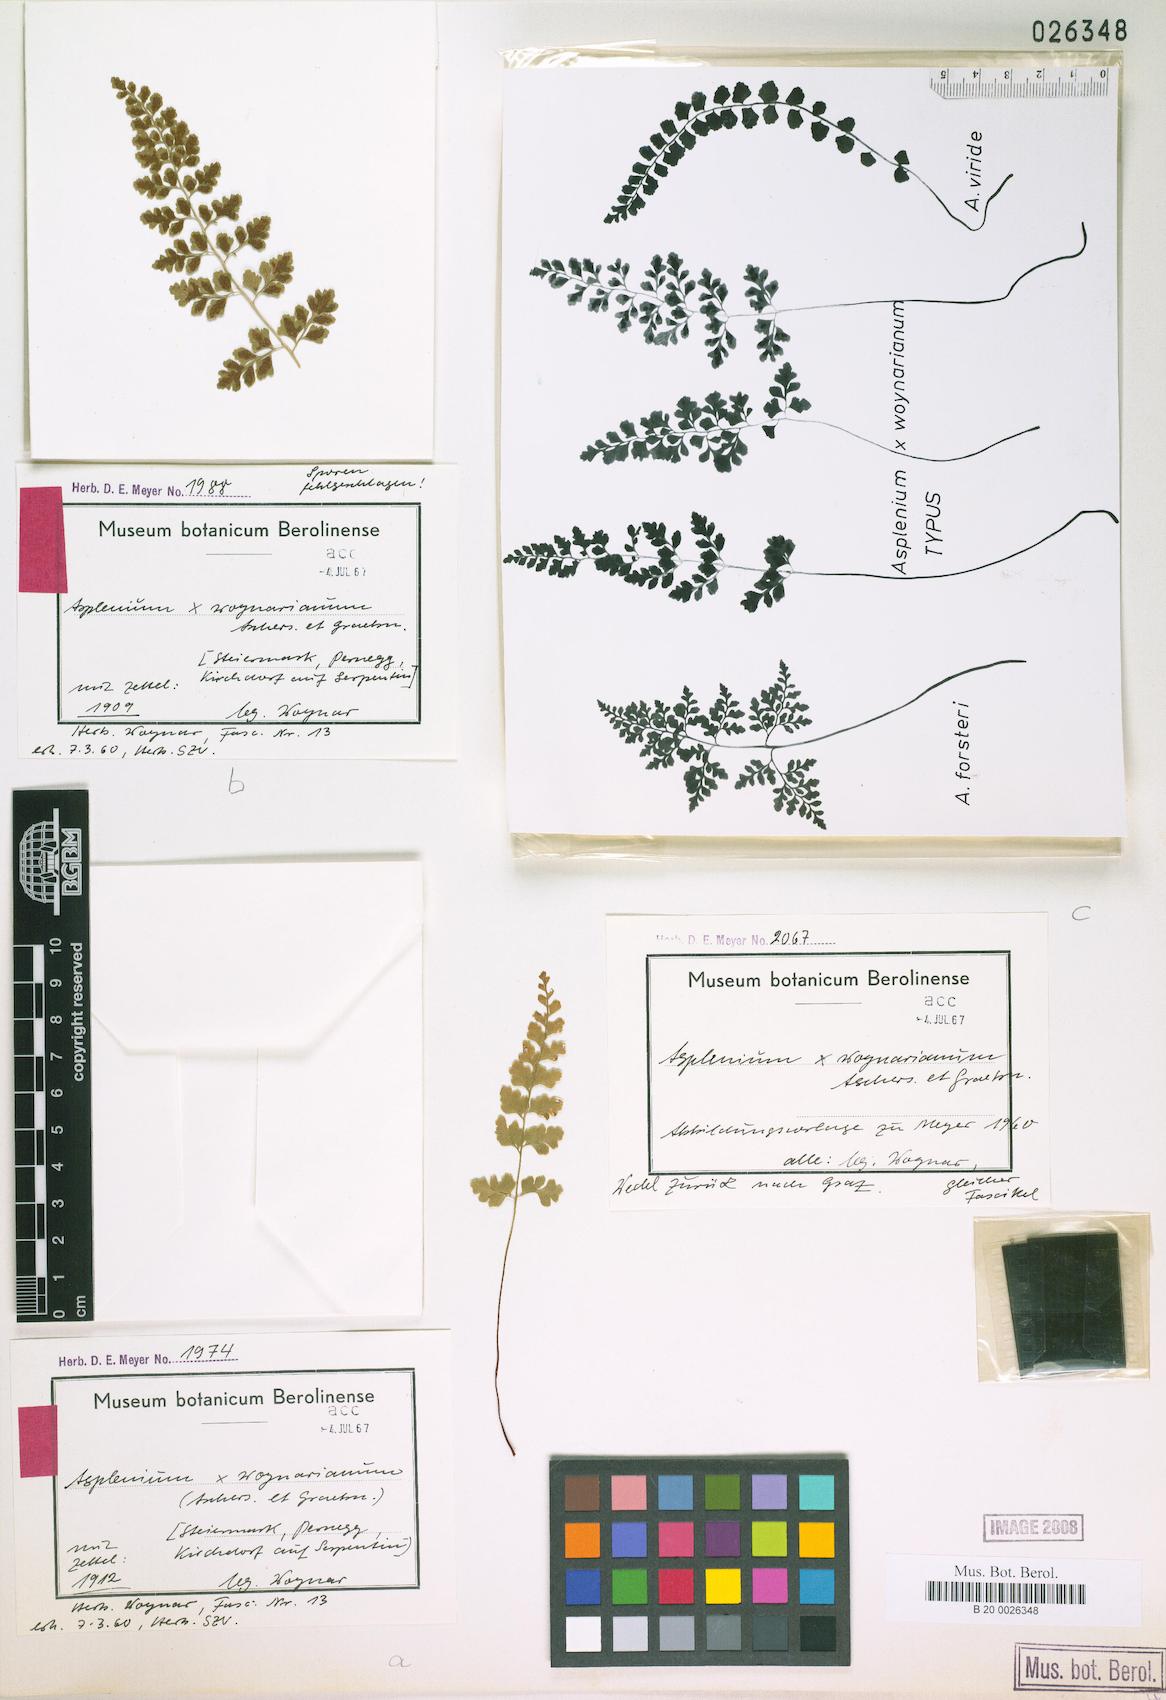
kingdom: Plantae
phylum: Tracheophyta
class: Polypodiopsida
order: Polypodiales
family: Aspleniaceae
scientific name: Aspleniaceae
